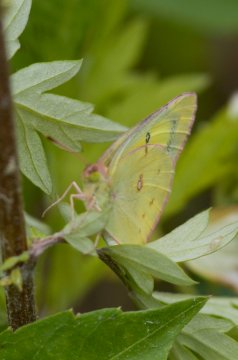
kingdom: Animalia
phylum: Arthropoda
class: Insecta
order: Lepidoptera
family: Pieridae
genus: Colias
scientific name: Colias philodice
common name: Clouded Sulphur
